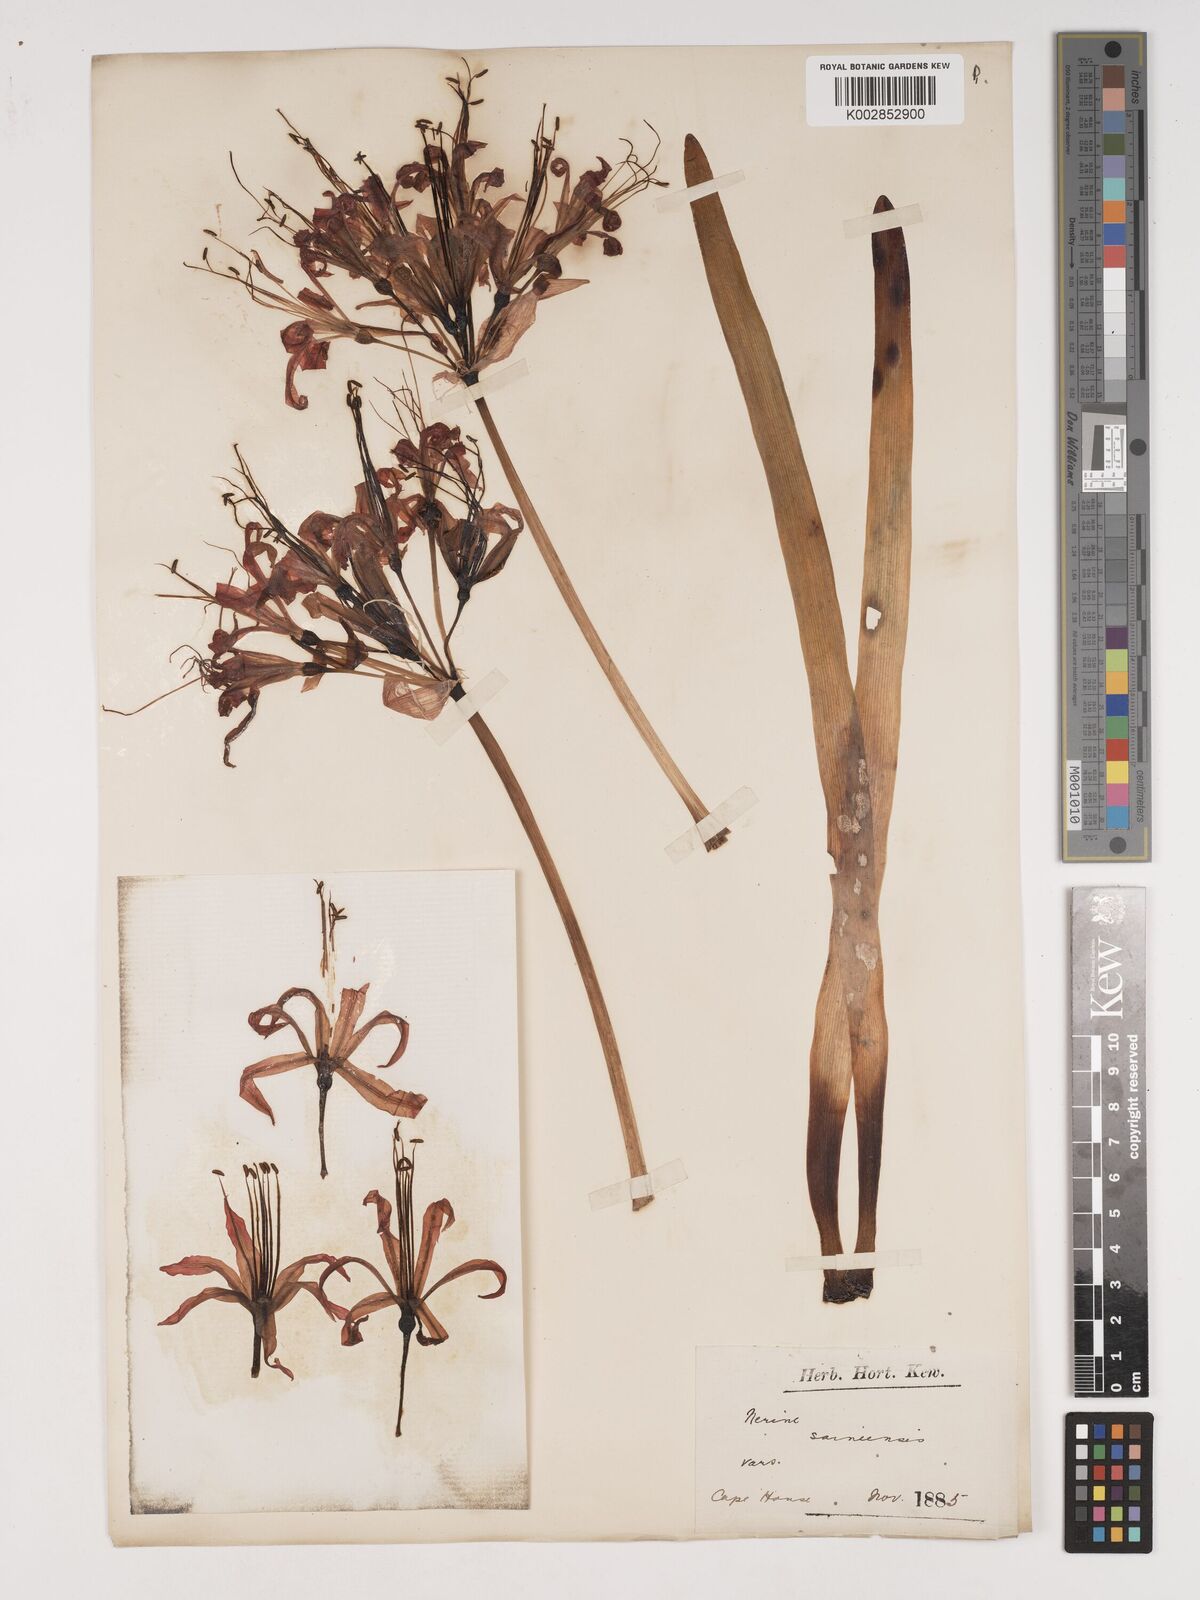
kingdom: Plantae
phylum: Tracheophyta
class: Liliopsida
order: Asparagales
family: Amaryllidaceae
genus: Nerine
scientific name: Nerine sarniensis
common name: Guernsey-lily
